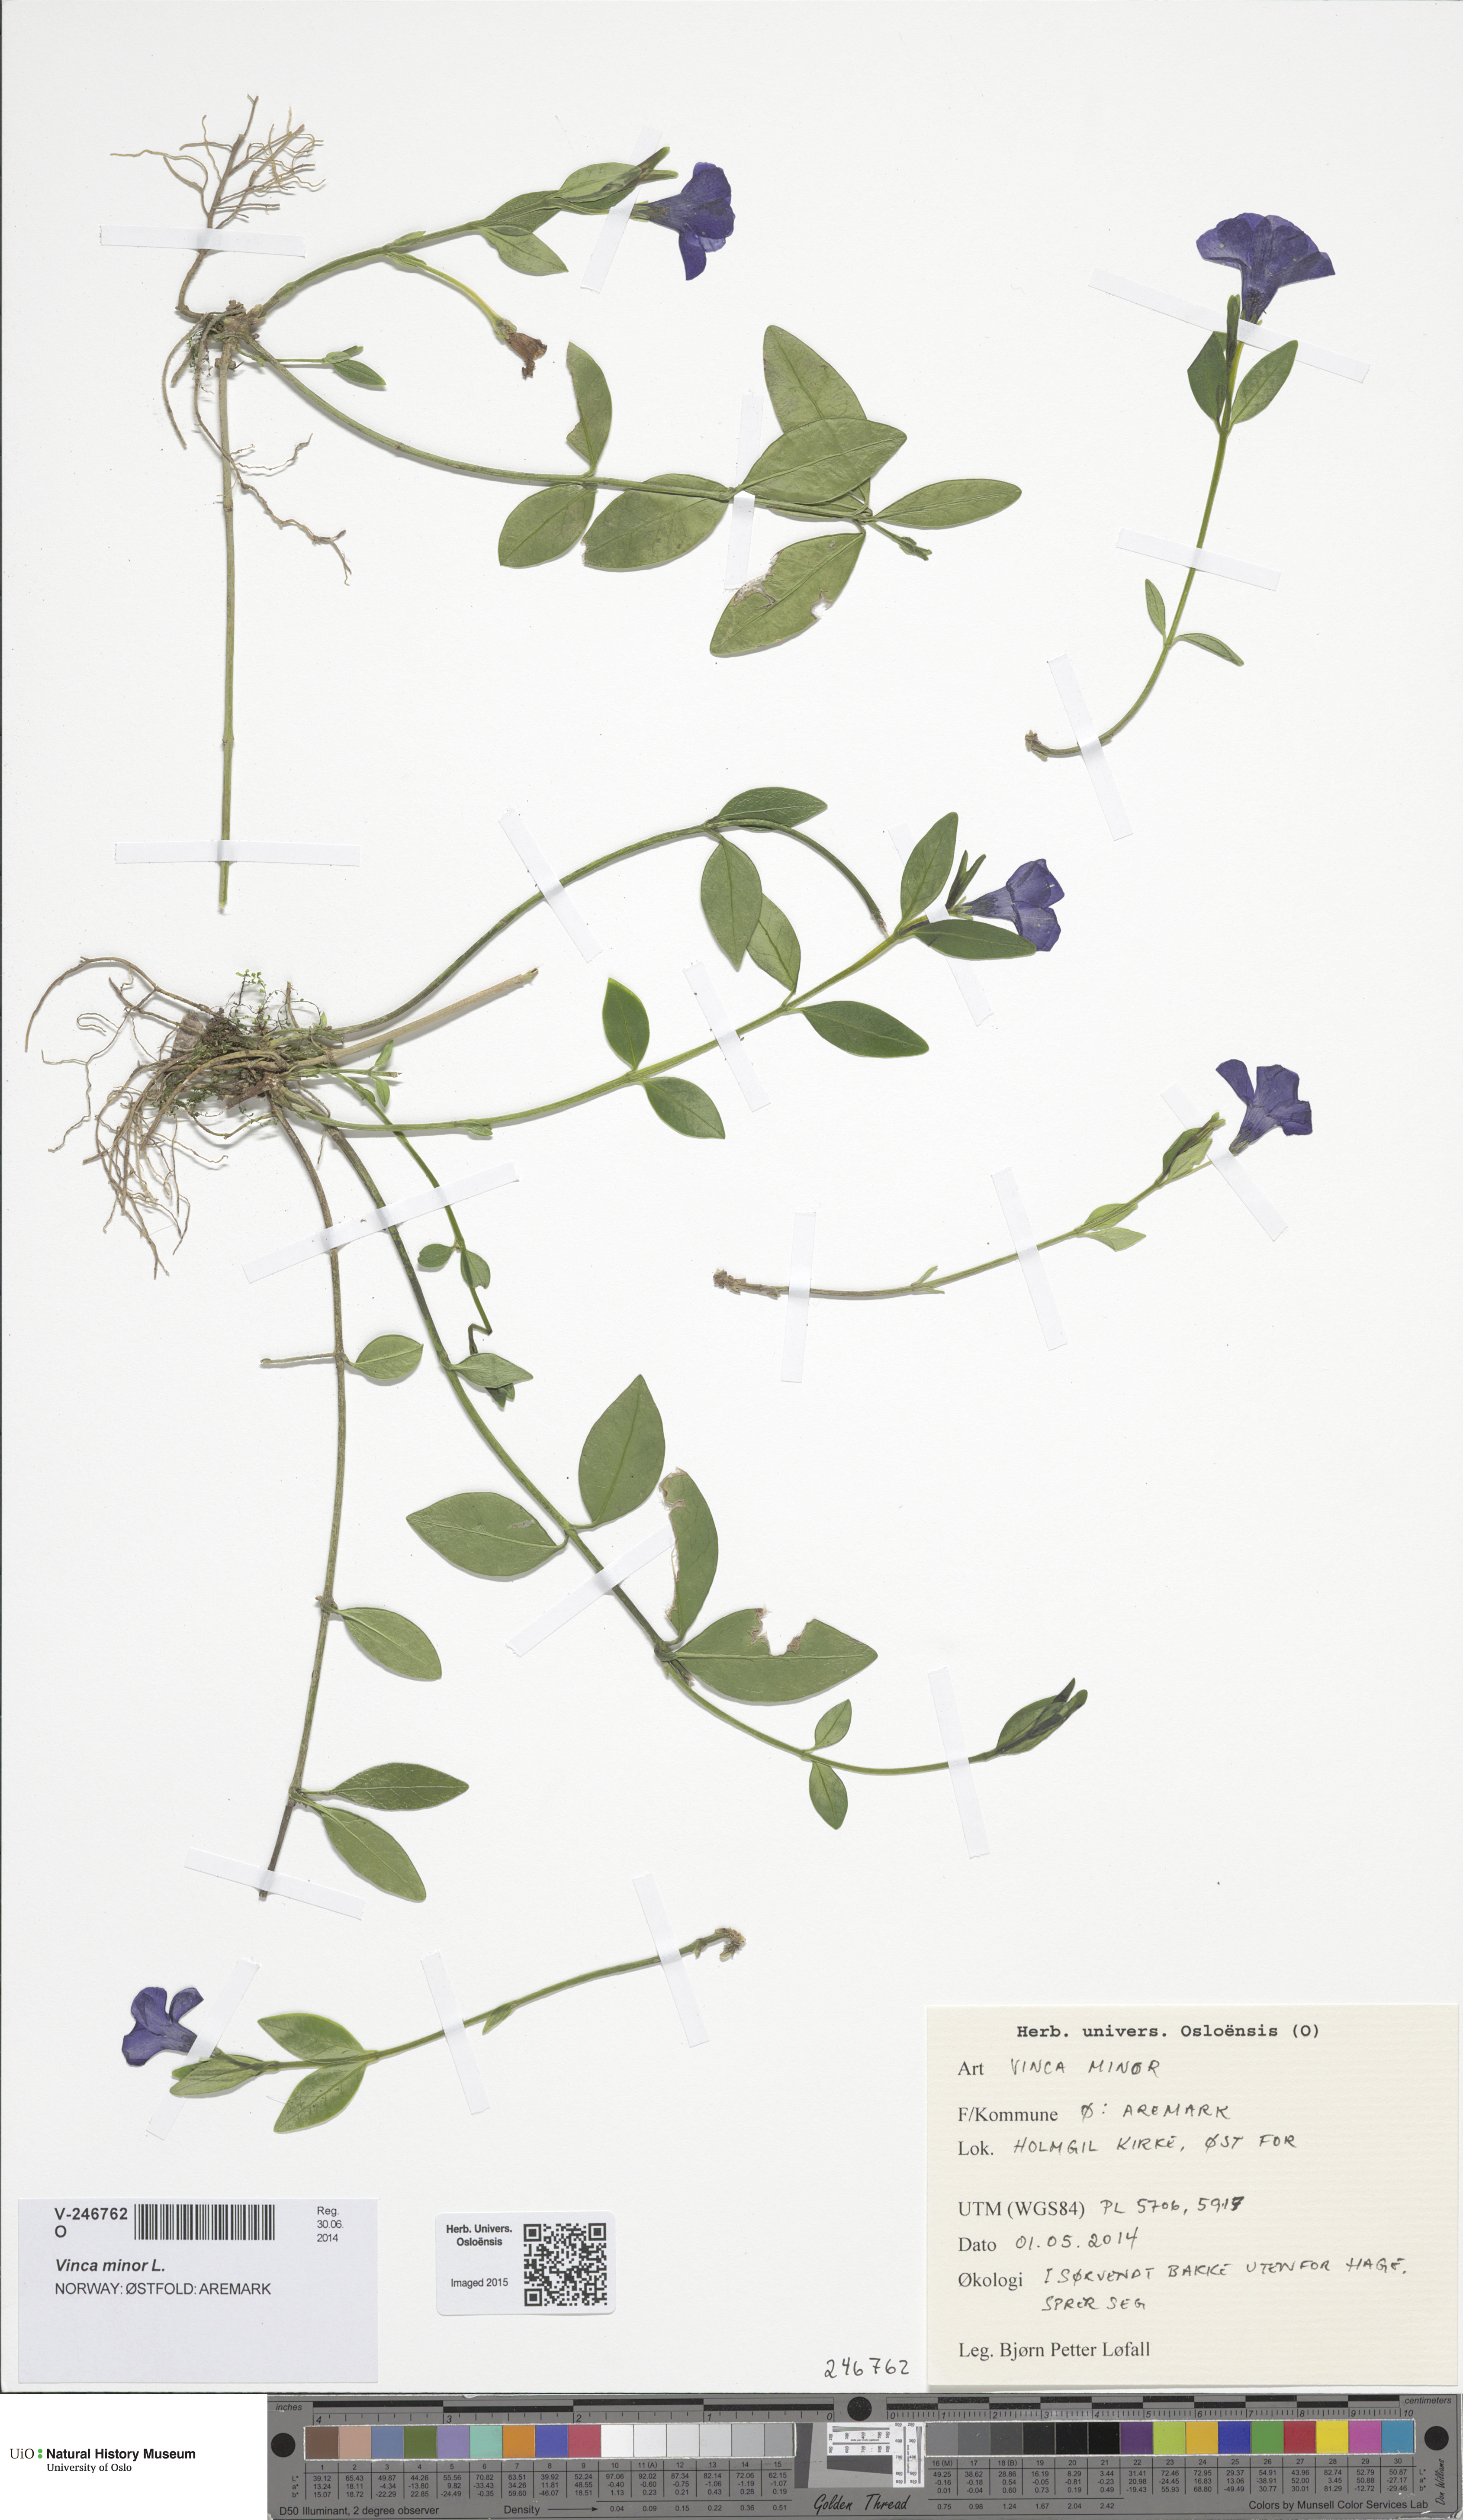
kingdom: Plantae
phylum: Tracheophyta
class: Magnoliopsida
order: Gentianales
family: Apocynaceae
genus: Vinca
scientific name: Vinca minor
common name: Lesser periwinkle
